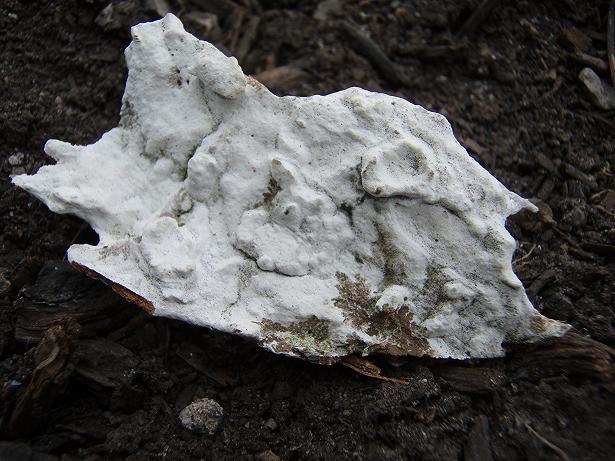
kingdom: Fungi
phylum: Basidiomycota
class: Agaricomycetes
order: Hymenochaetales
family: Rickenellaceae
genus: Peniophorella
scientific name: Peniophorella praetermissa
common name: almindelig kalkskind
